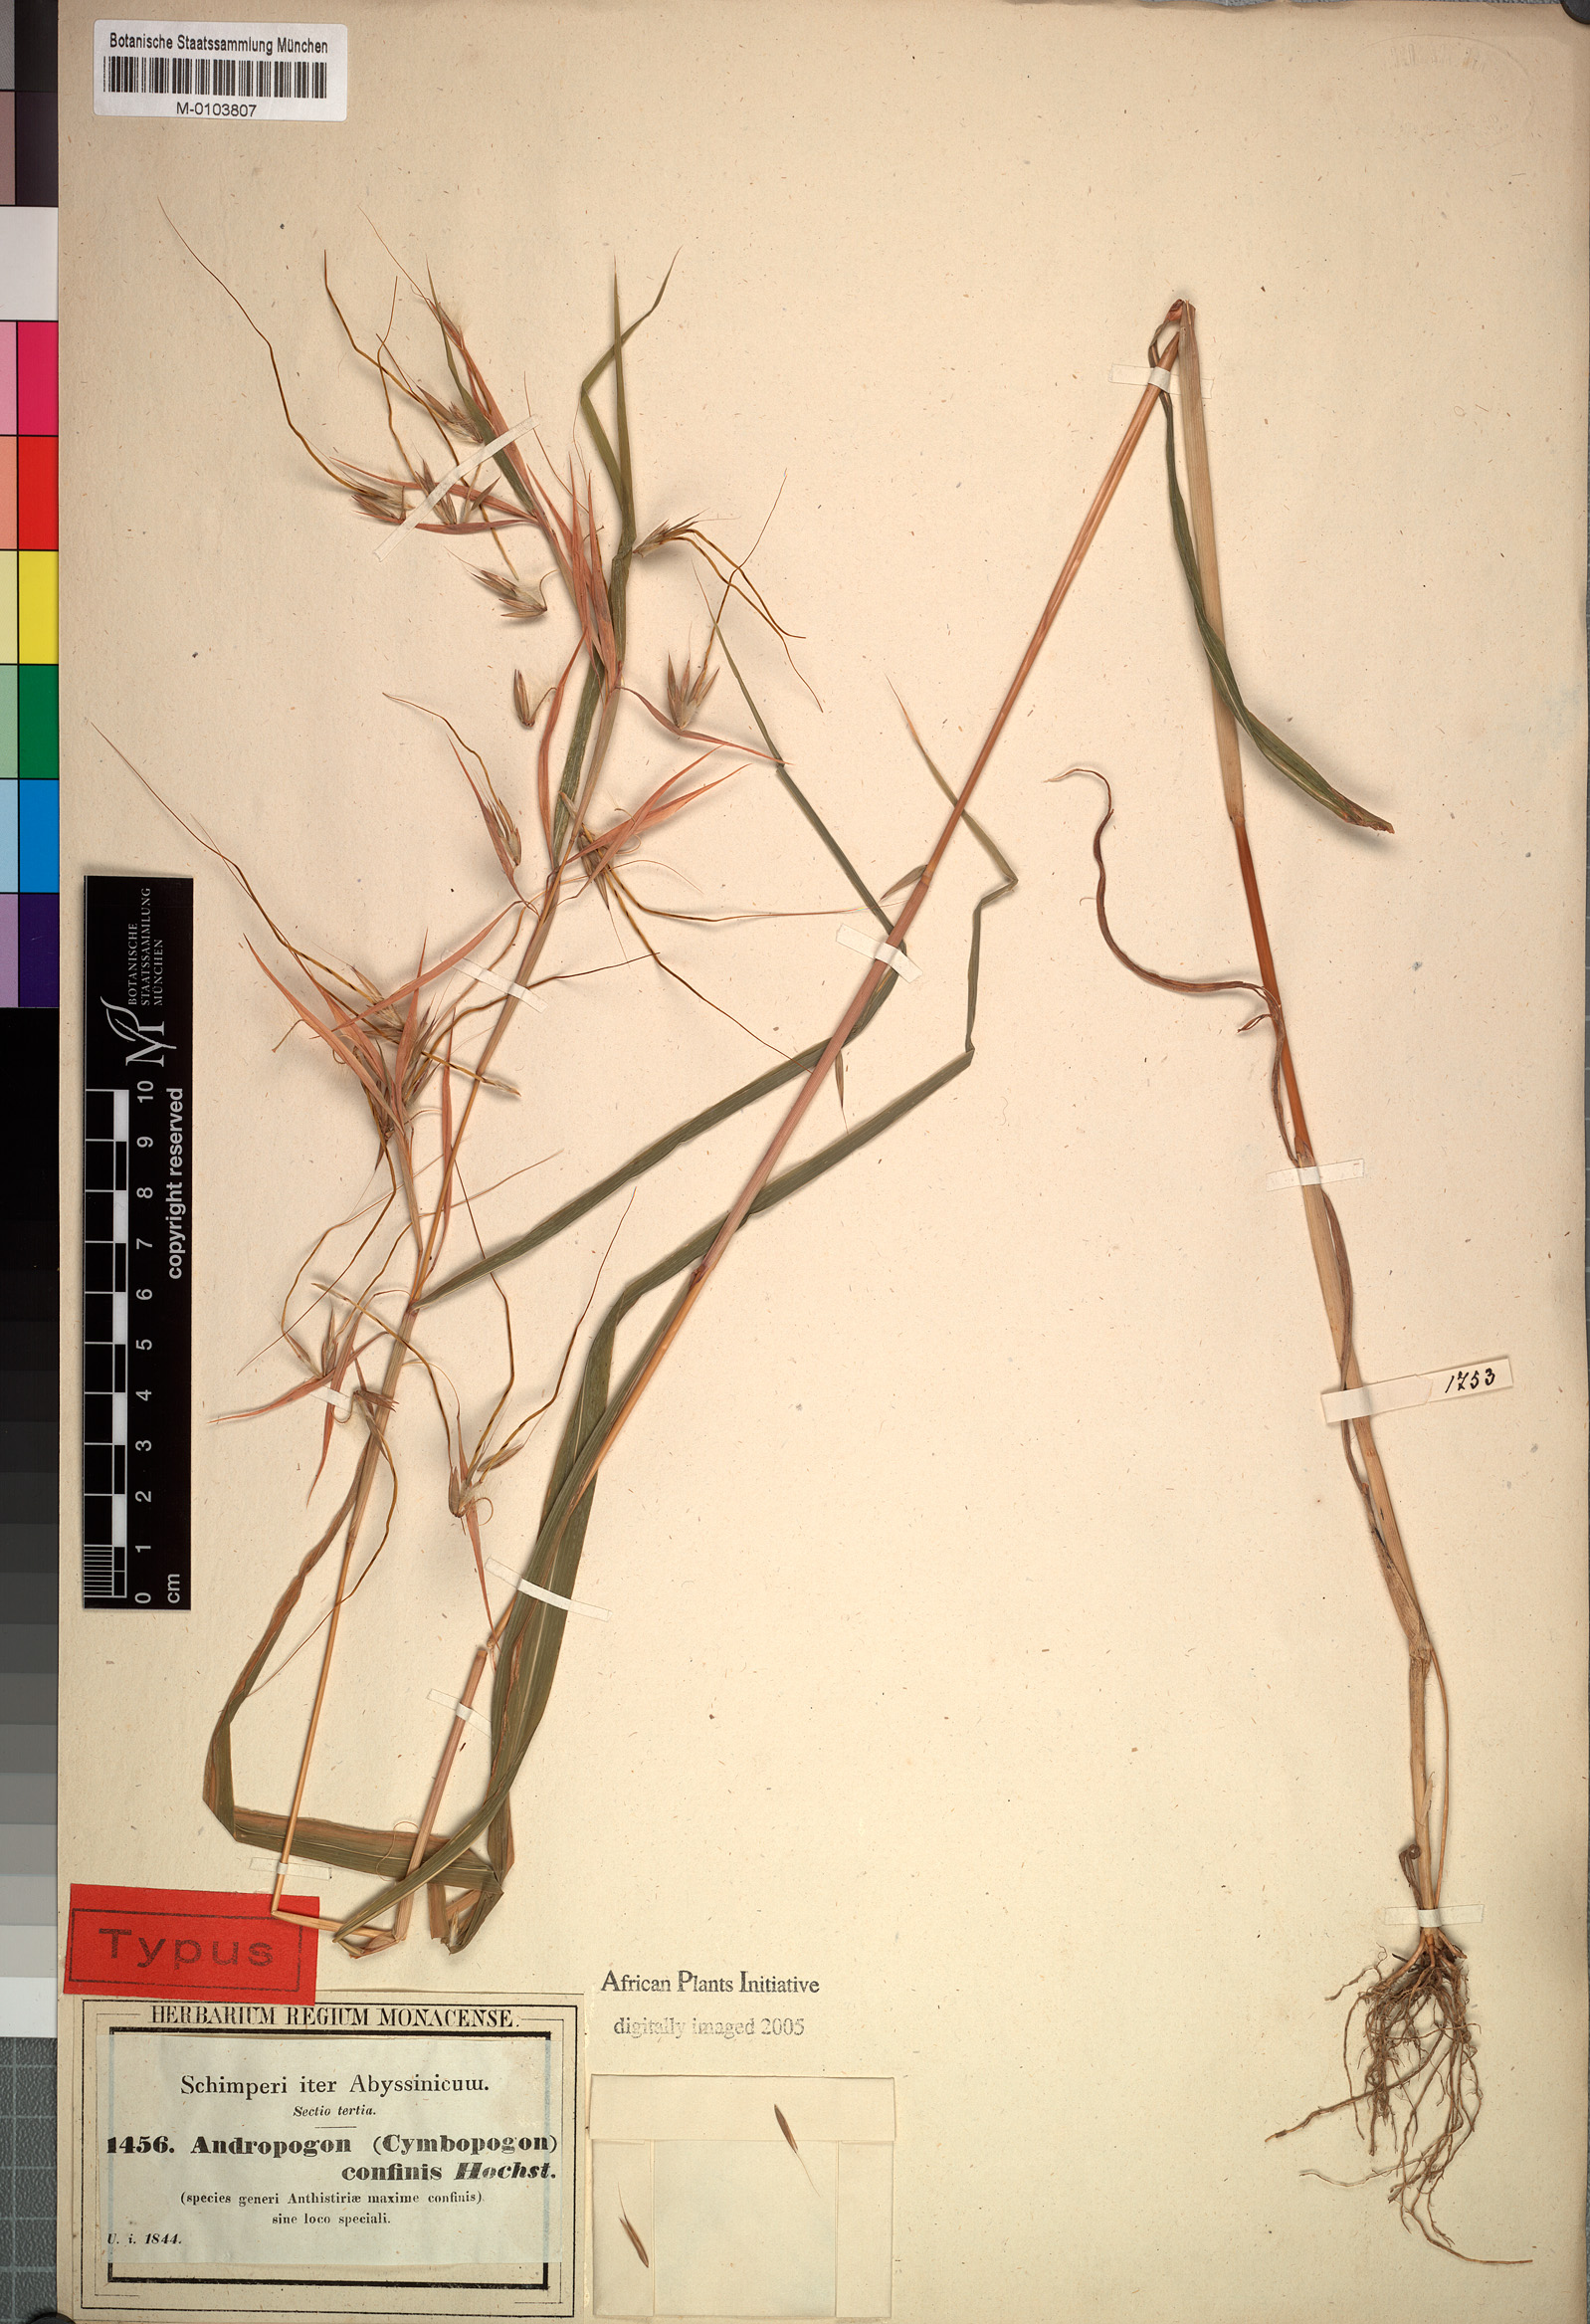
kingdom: Plantae
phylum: Tracheophyta
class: Liliopsida
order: Poales
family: Poaceae
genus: Hyparrhenia
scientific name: Hyparrhenia confinis
